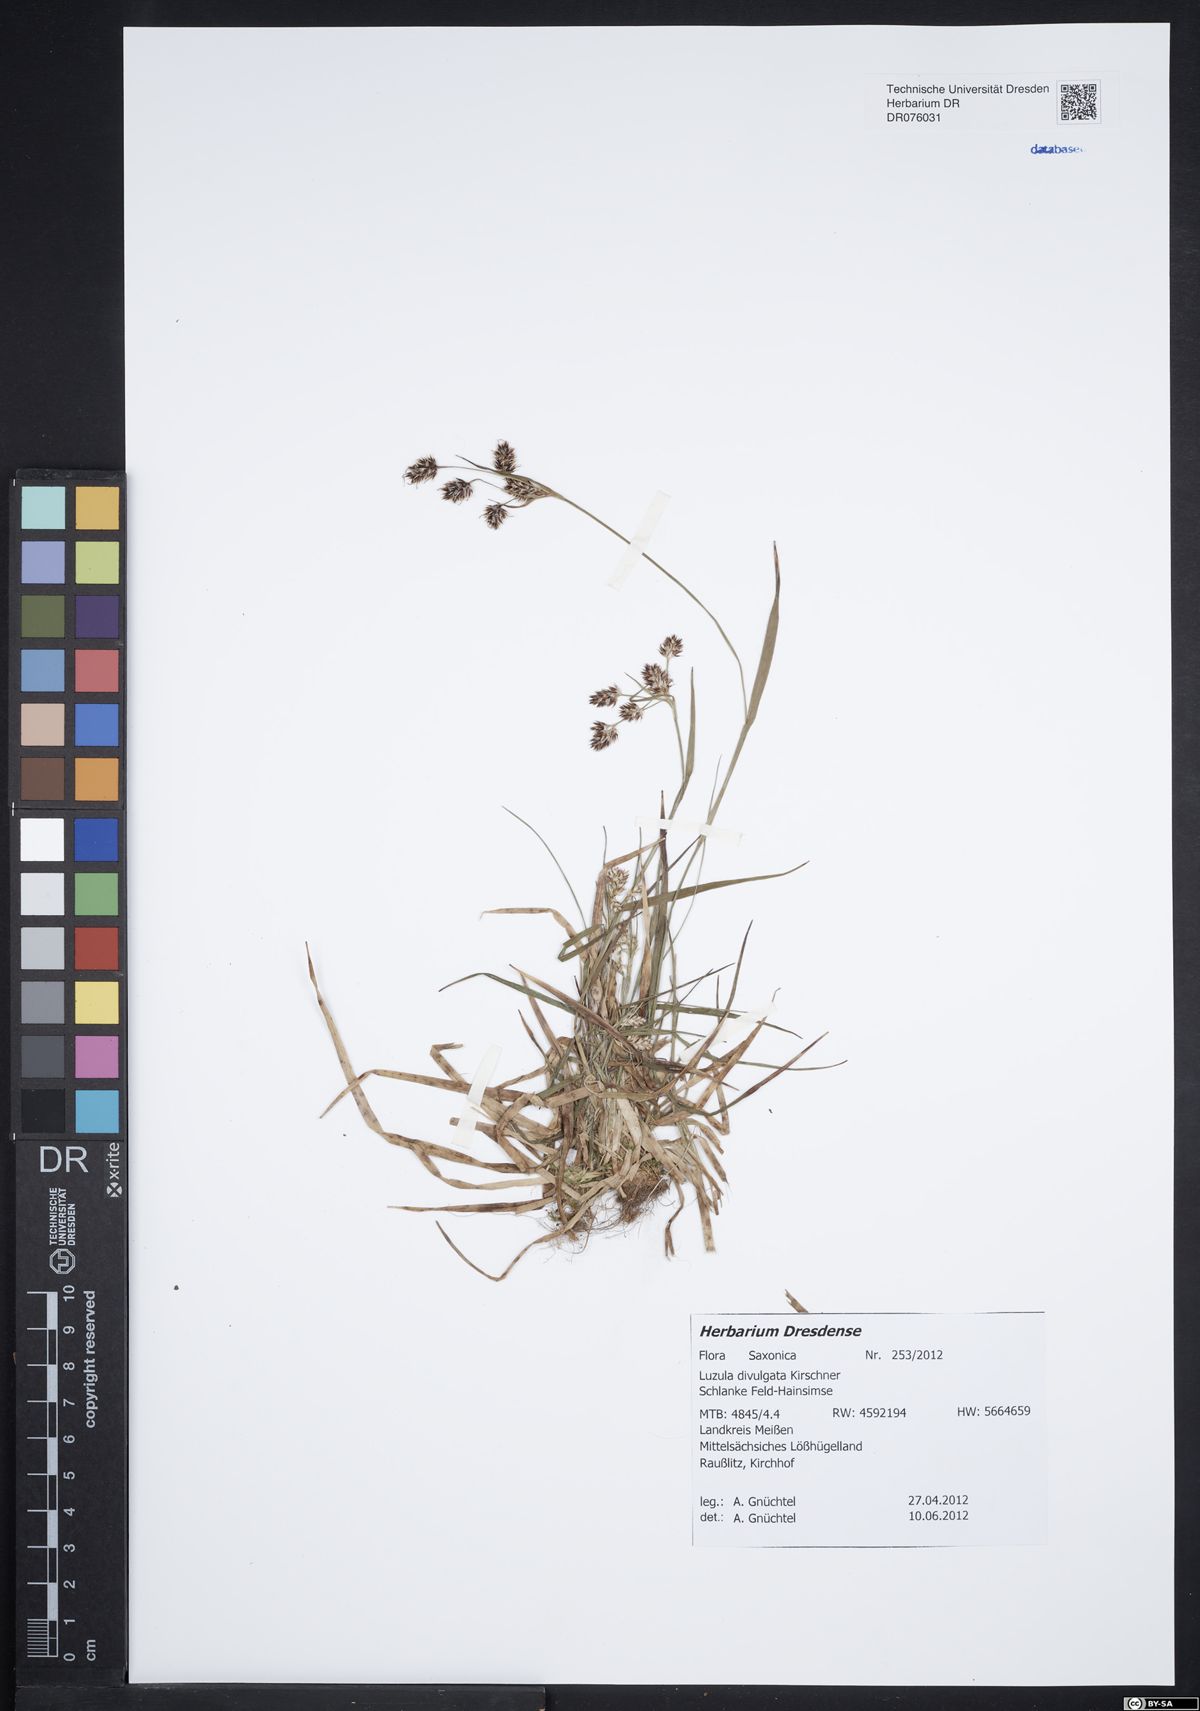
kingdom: Plantae
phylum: Tracheophyta
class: Liliopsida
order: Poales
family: Juncaceae
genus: Luzula
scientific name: Luzula divulgata
